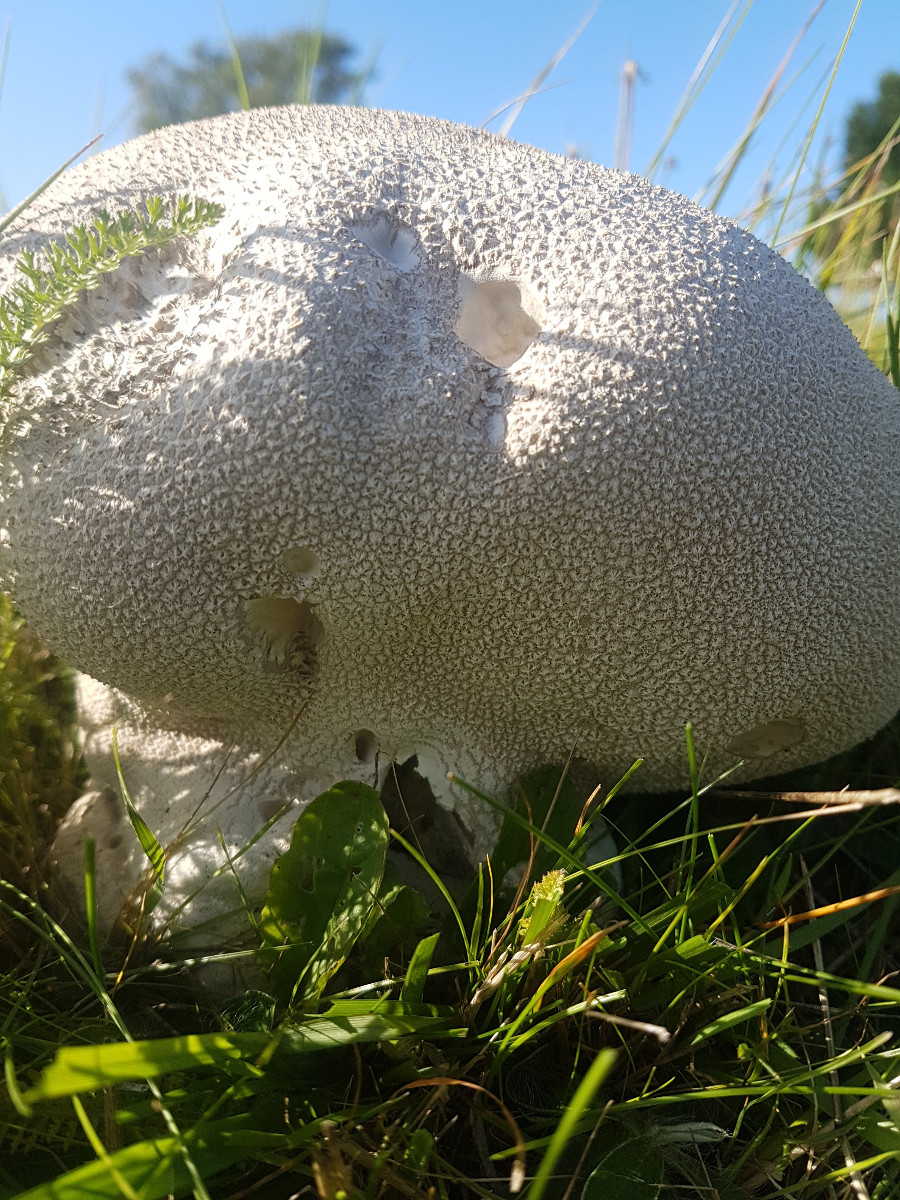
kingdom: Fungi
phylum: Basidiomycota
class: Agaricomycetes
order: Agaricales
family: Lycoperdaceae
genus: Bovistella
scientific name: Bovistella utriformis
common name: skællet støvbold
